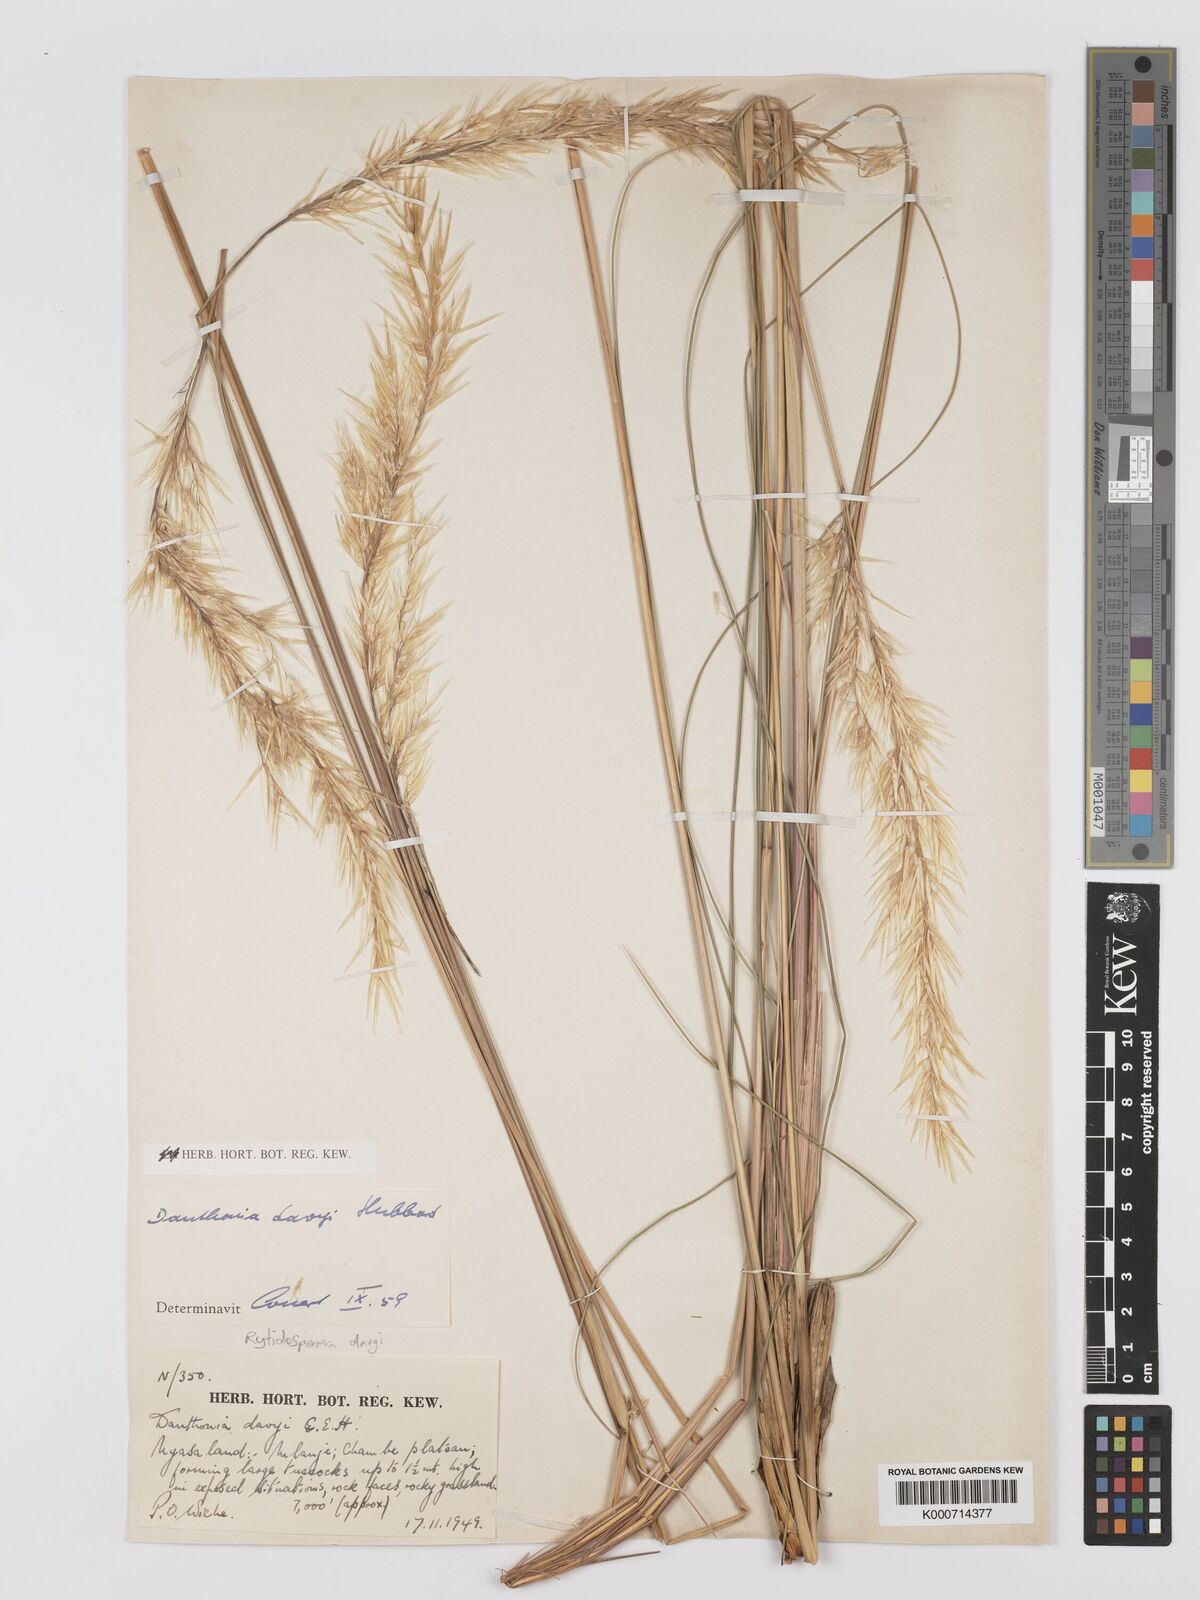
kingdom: Plantae
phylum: Tracheophyta
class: Liliopsida
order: Poales
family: Poaceae
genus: Merxmuellera
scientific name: Merxmuellera davyi
